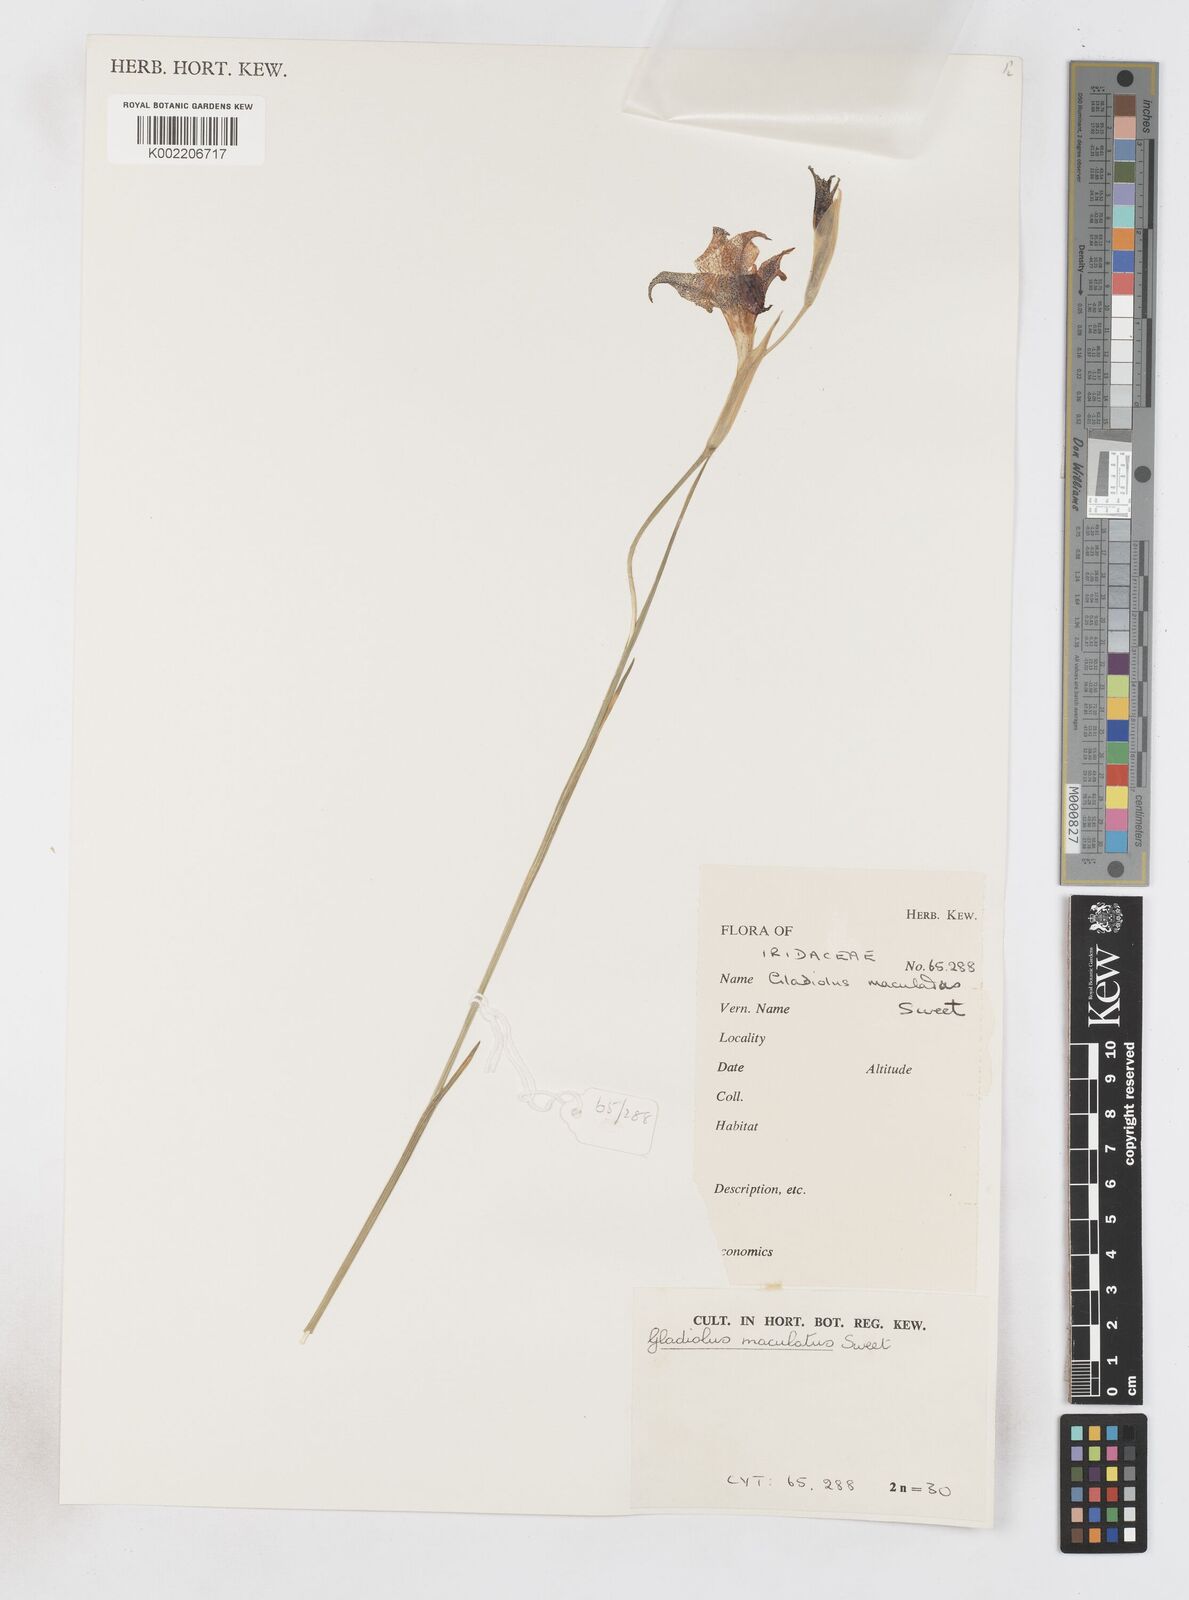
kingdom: Plantae
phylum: Tracheophyta
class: Liliopsida
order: Asparagales
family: Iridaceae
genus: Gladiolus
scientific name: Gladiolus maculatus
